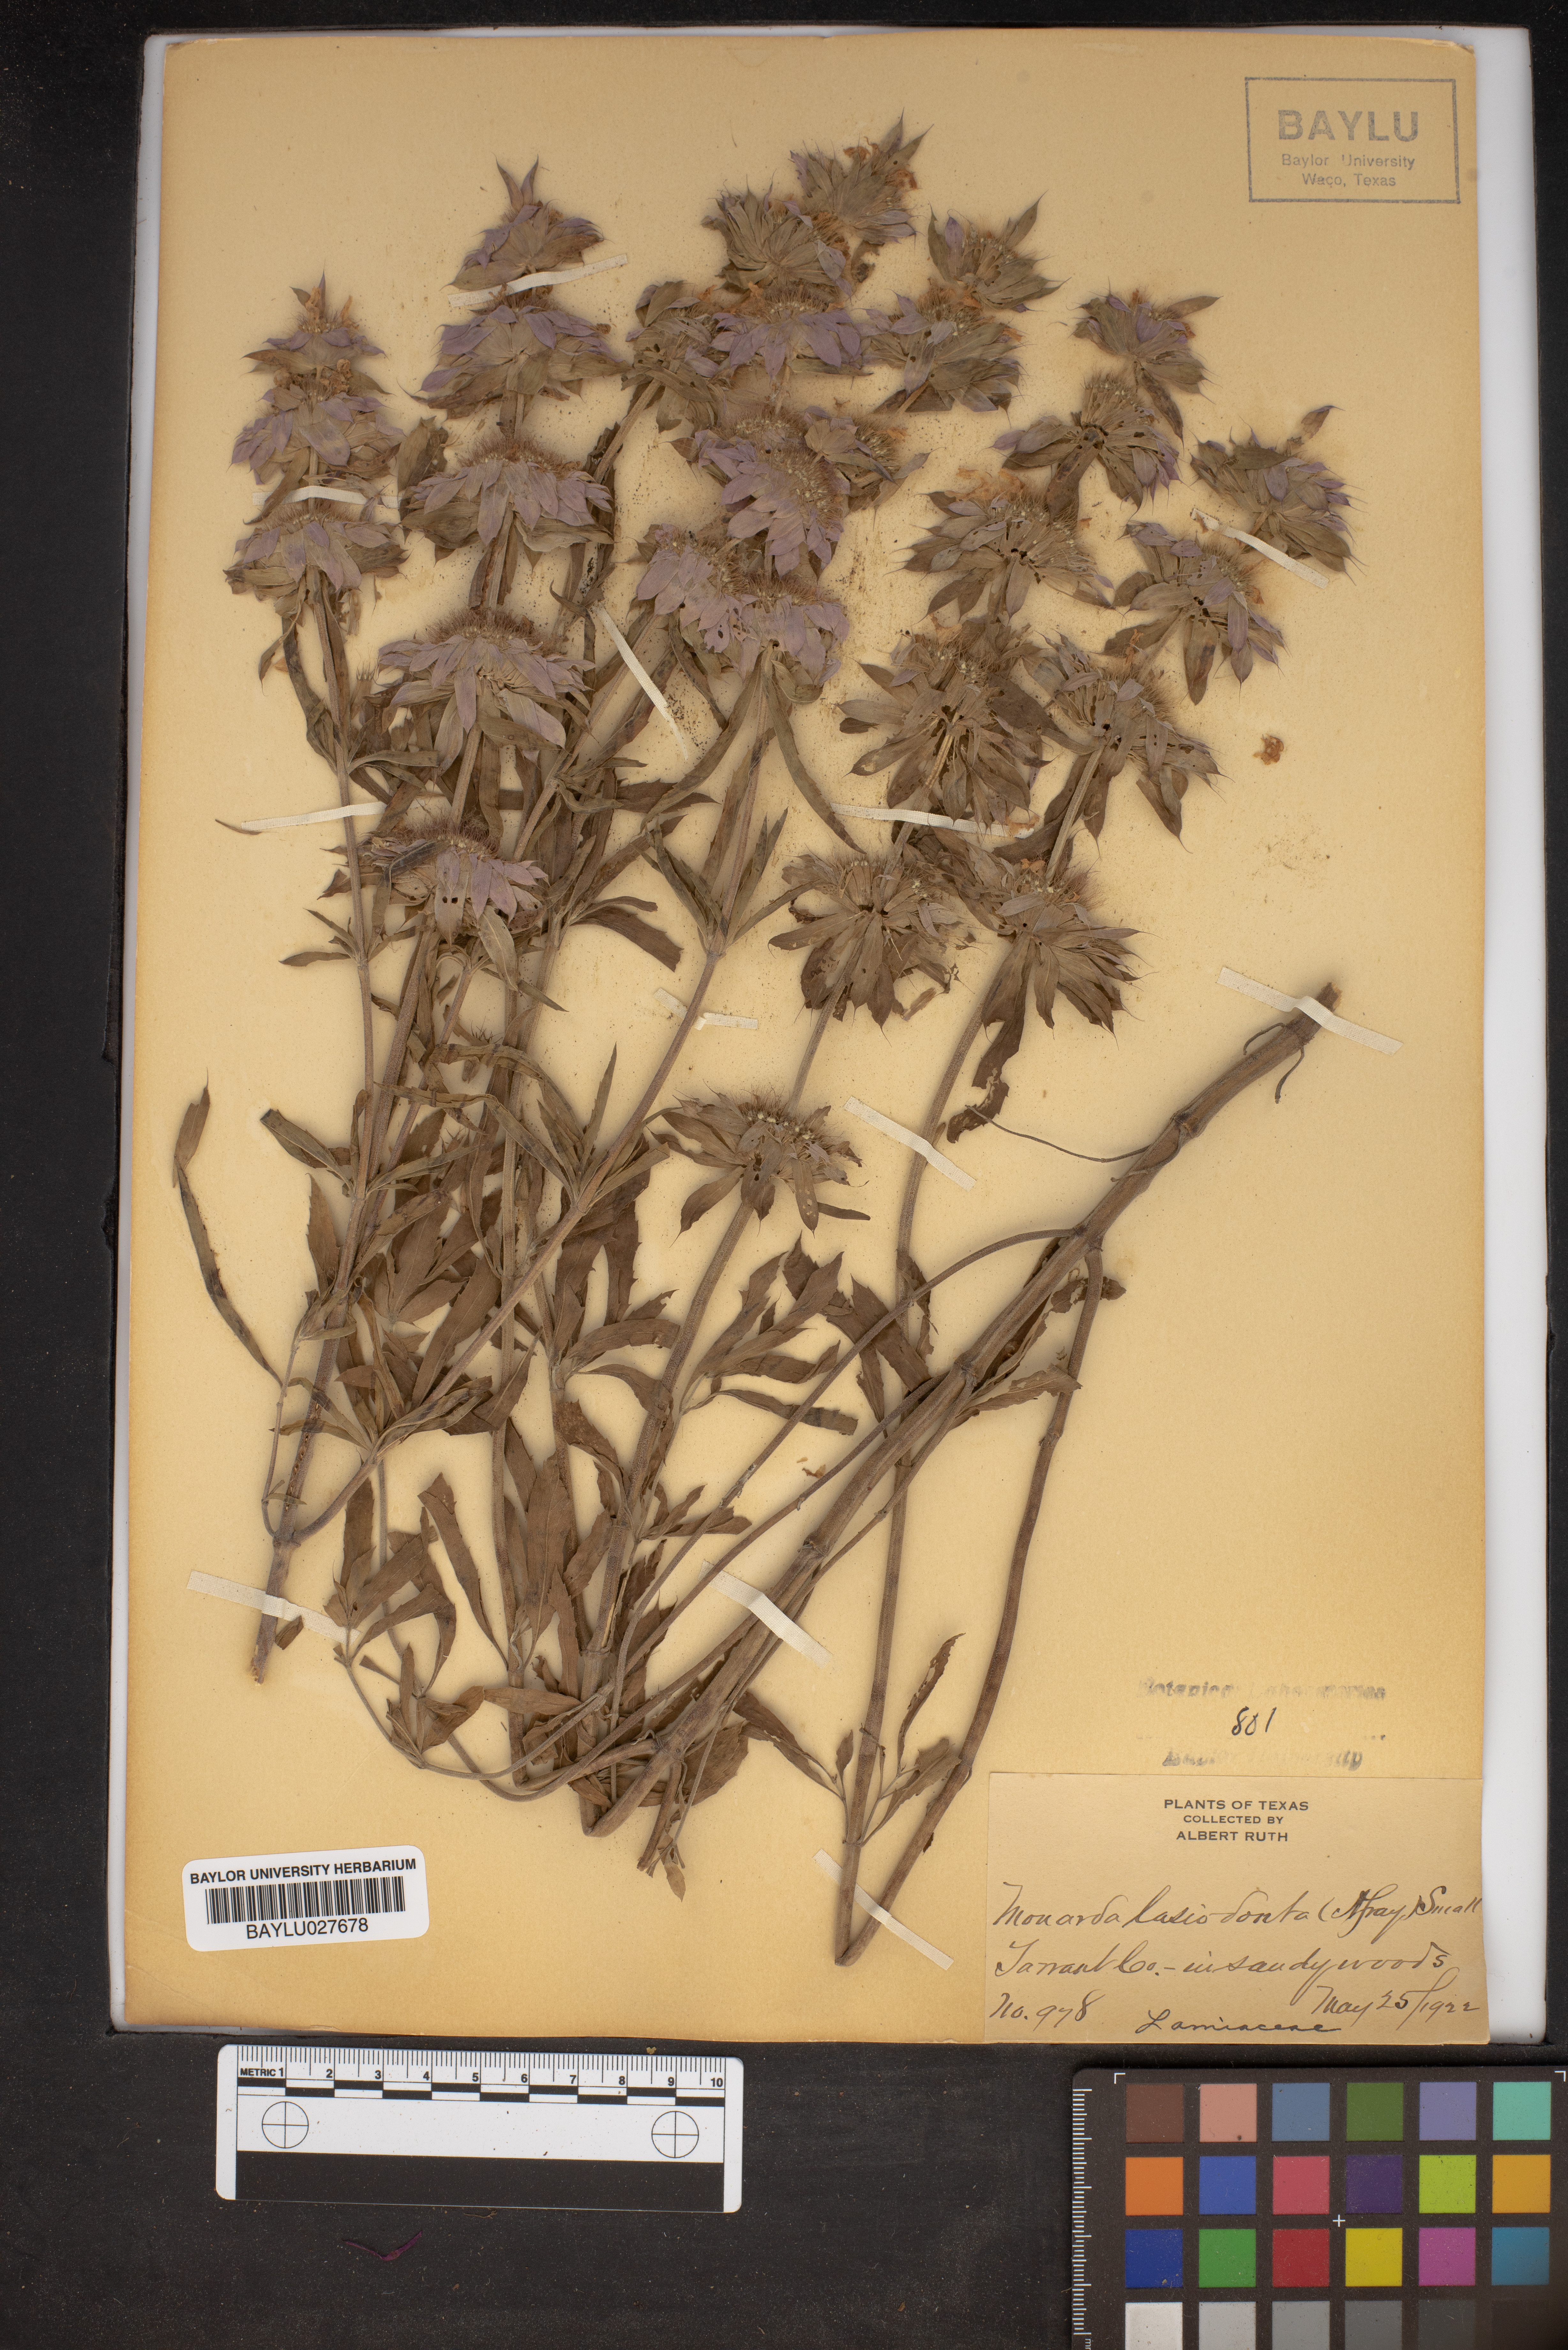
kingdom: Plantae
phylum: Tracheophyta
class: Magnoliopsida
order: Lamiales
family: Lamiaceae
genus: Monarda
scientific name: Monarda punctata
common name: Dotted monarda
